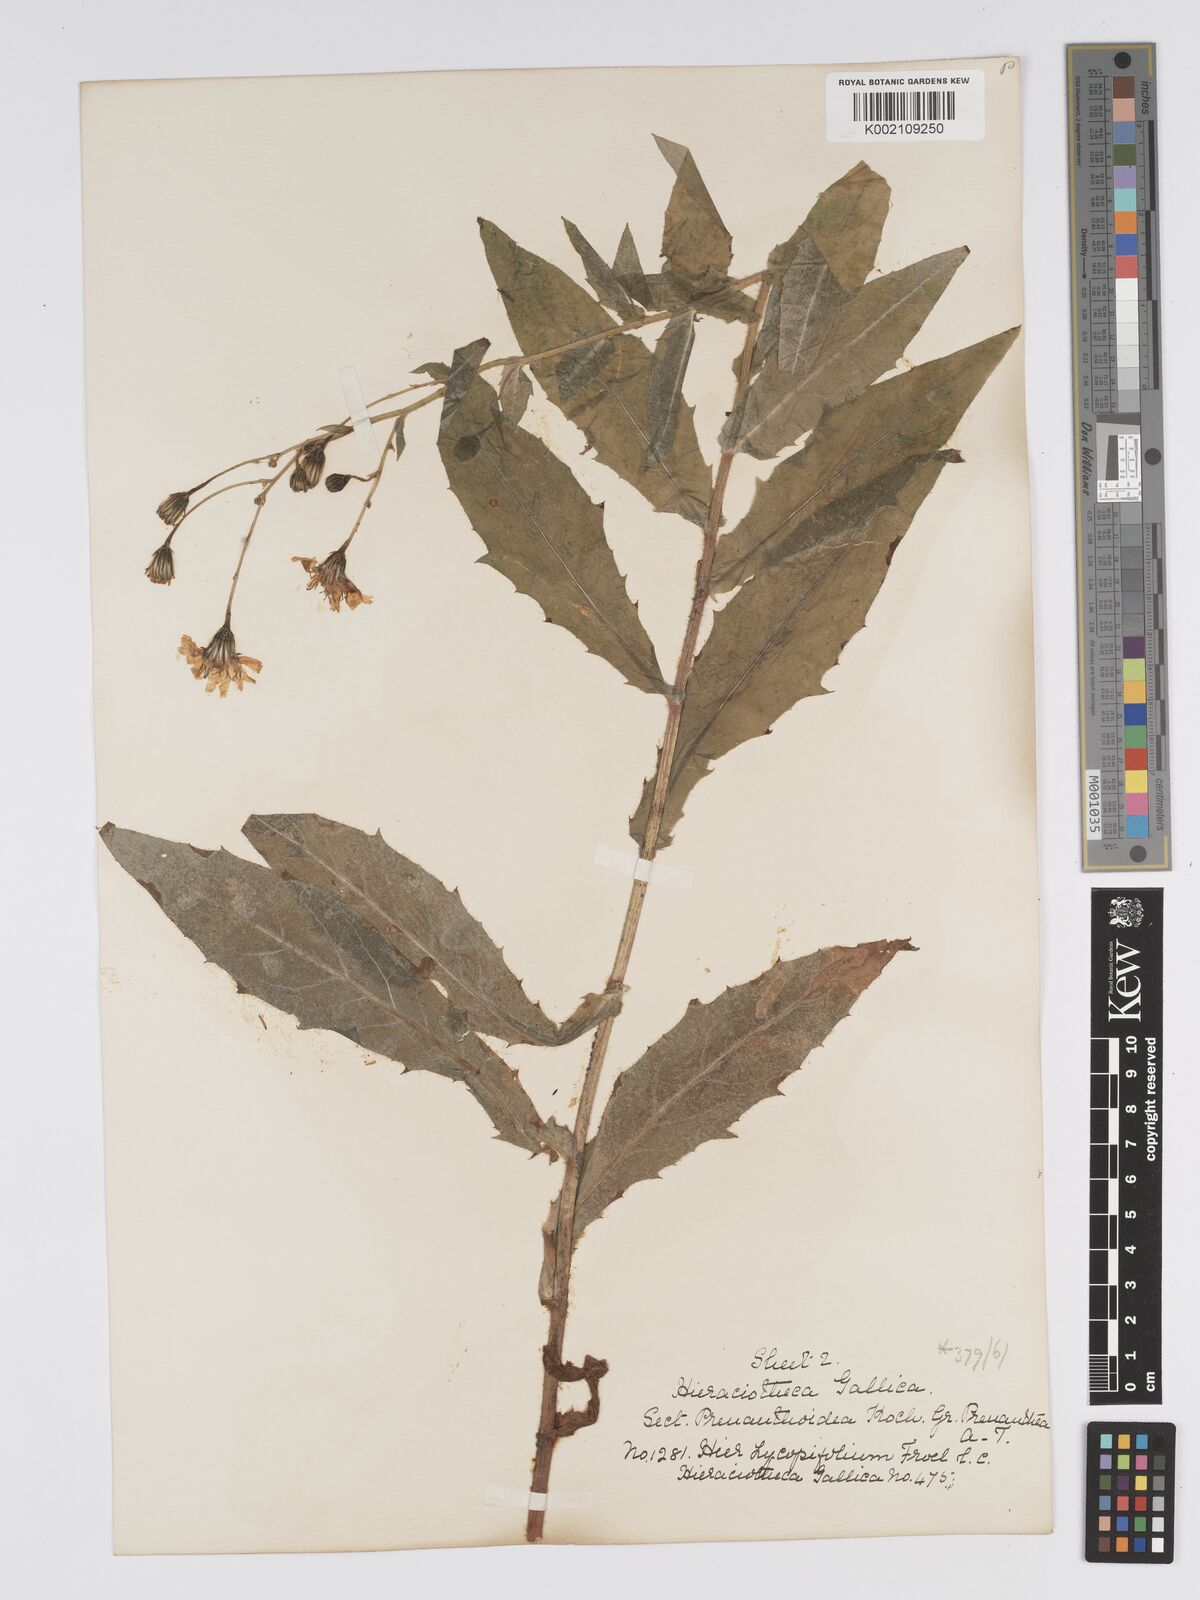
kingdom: Plantae
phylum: Tracheophyta
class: Magnoliopsida
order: Asterales
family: Asteraceae
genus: Hieracium
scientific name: Hieracium lycopifolium
